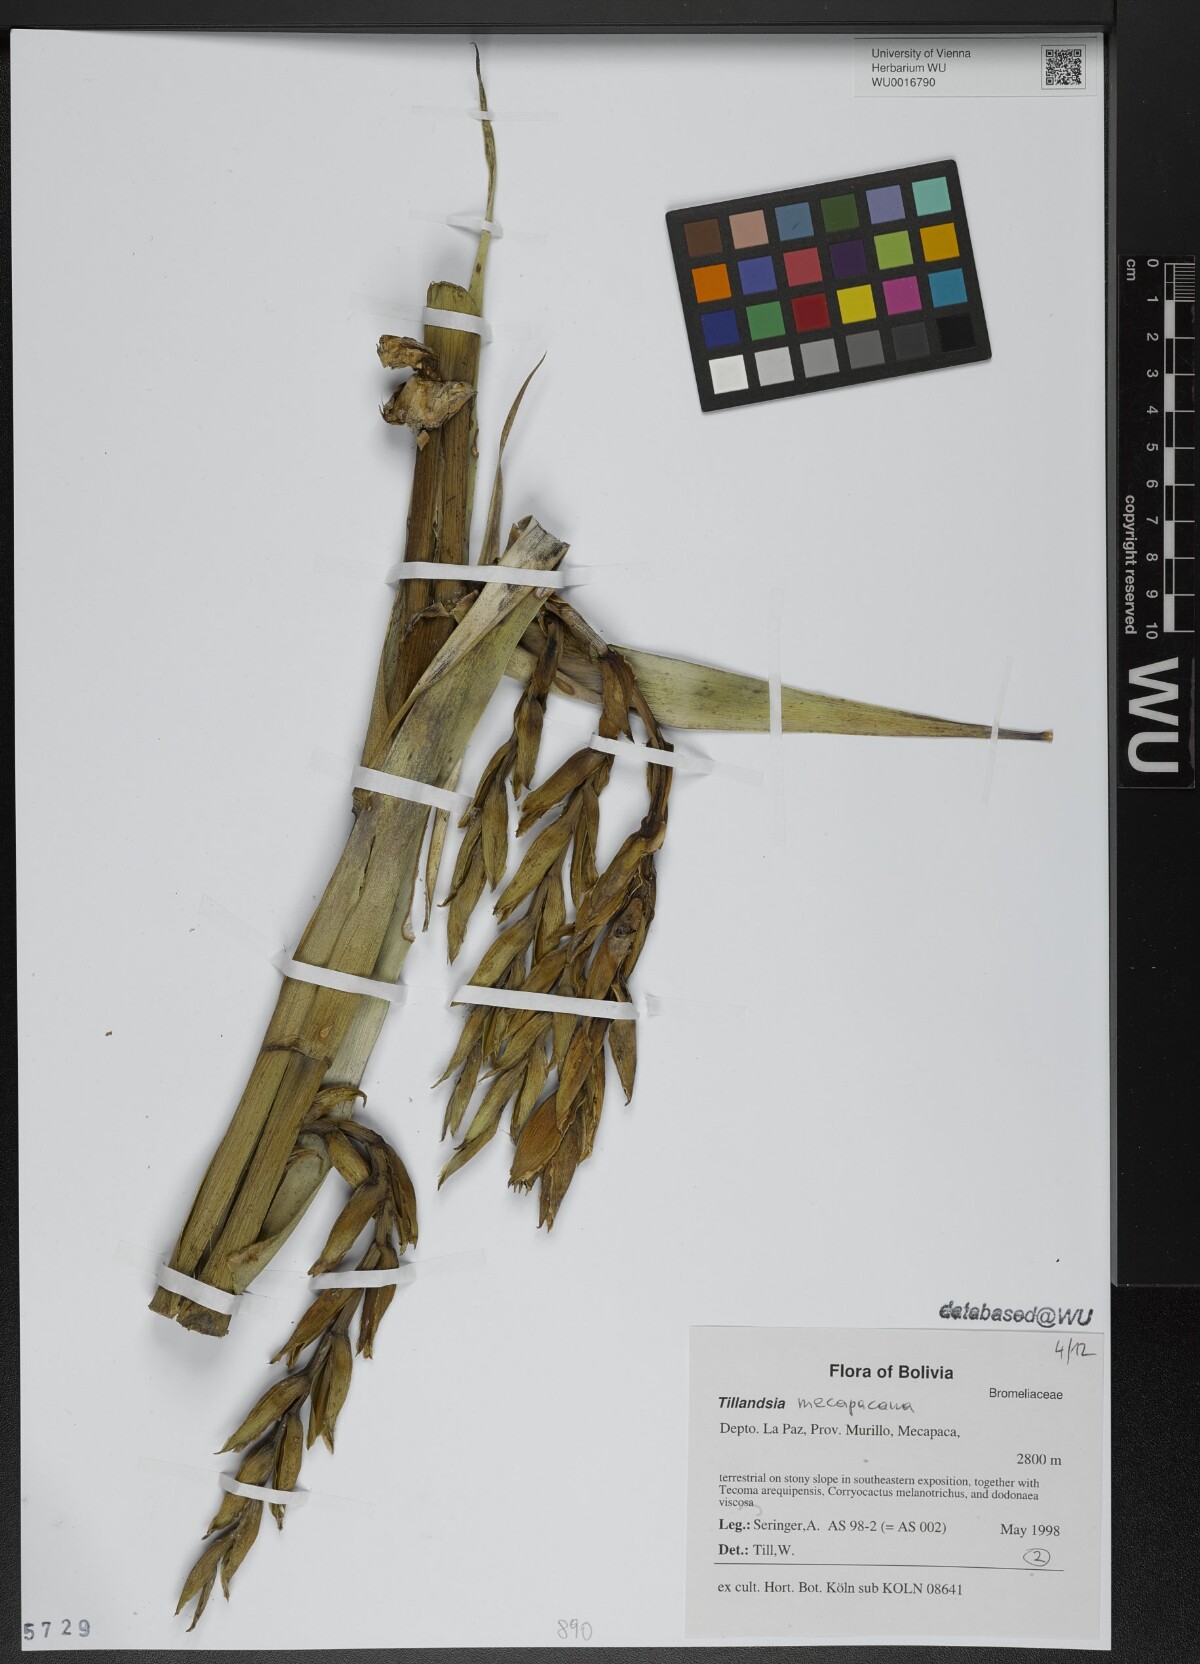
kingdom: Plantae
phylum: Tracheophyta
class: Liliopsida
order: Poales
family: Bromeliaceae
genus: Tillandsia
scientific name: Tillandsia
